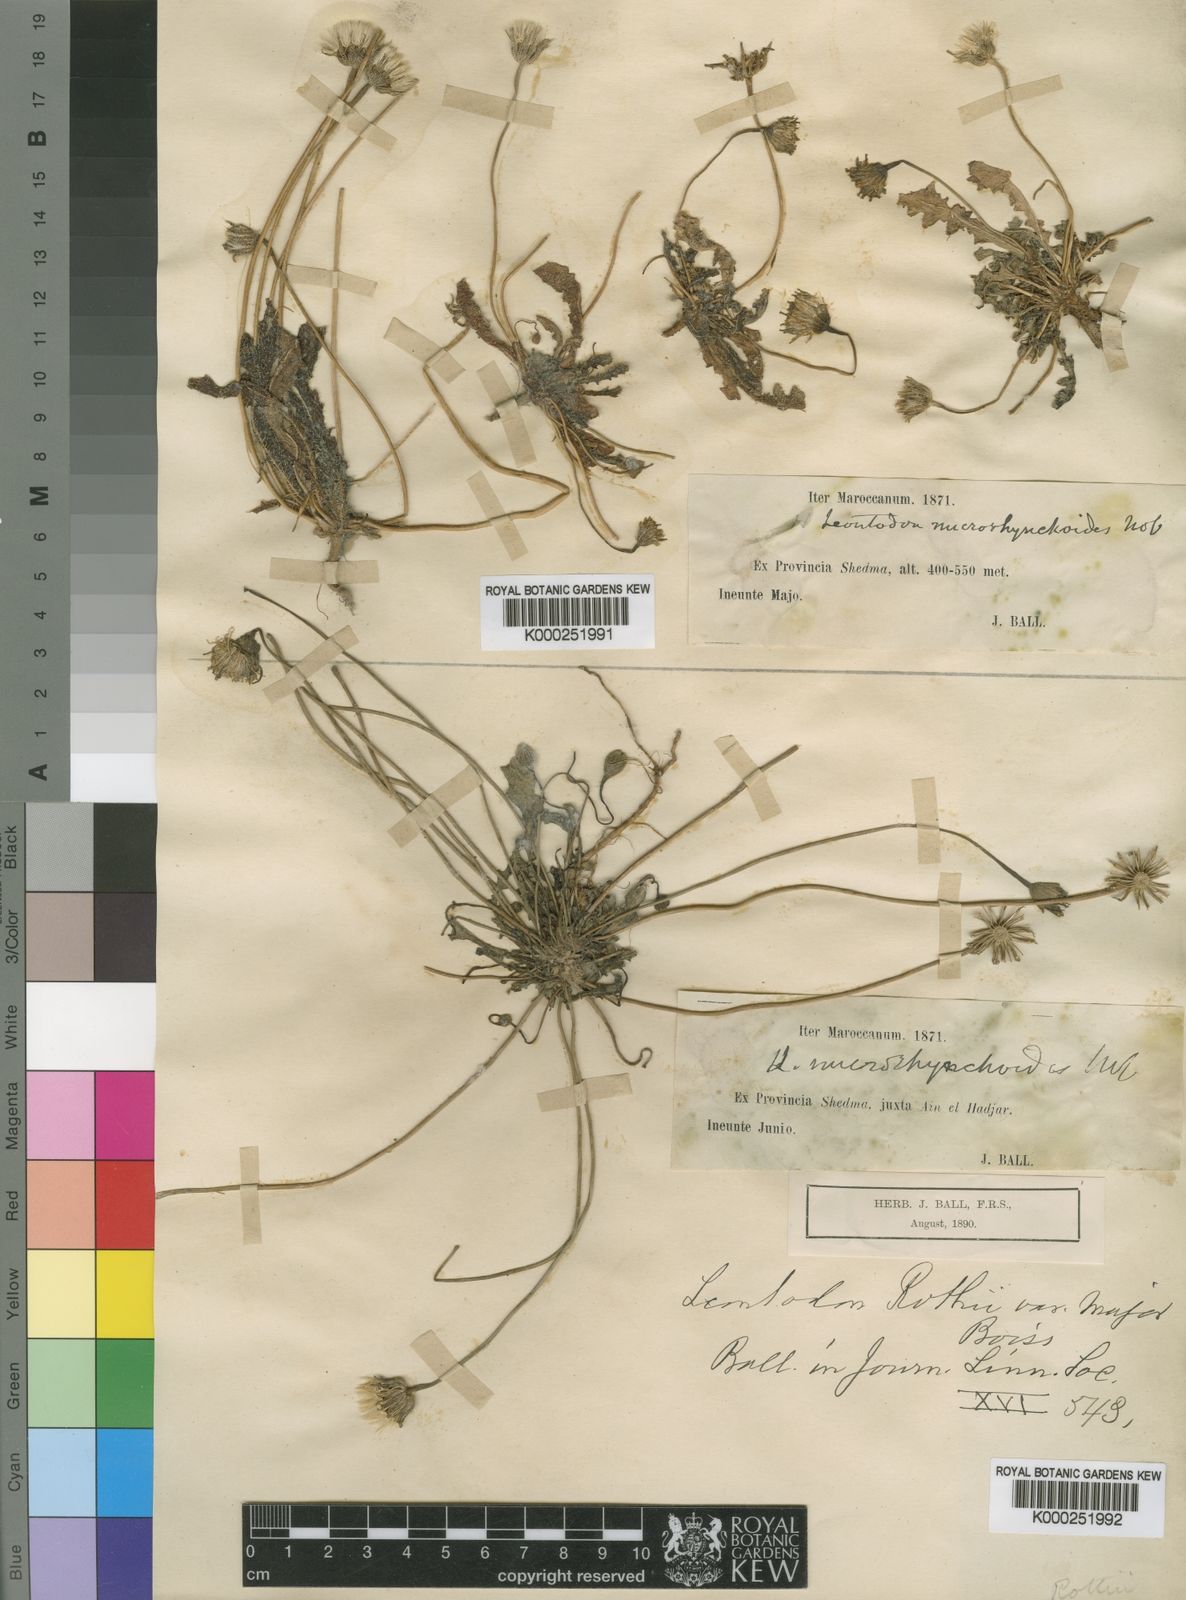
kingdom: Plantae
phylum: Tracheophyta
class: Magnoliopsida
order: Asterales
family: Asteraceae
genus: Thrincia
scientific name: Thrincia hispida
